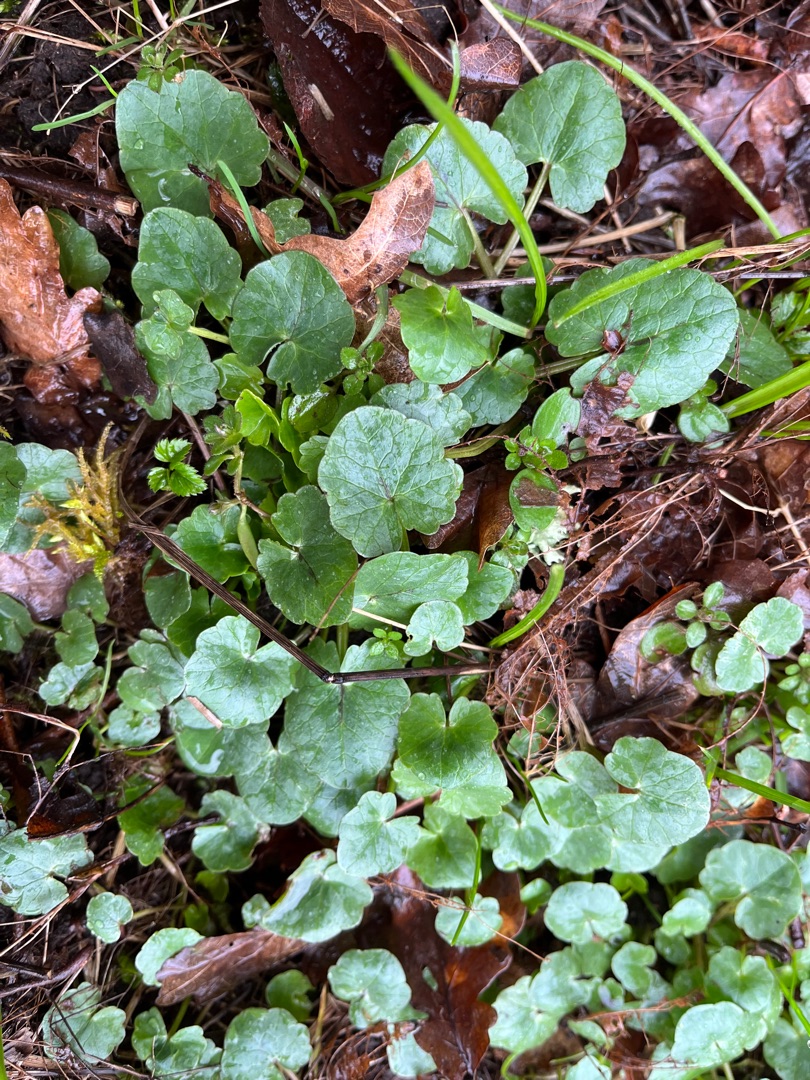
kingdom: Plantae
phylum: Tracheophyta
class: Magnoliopsida
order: Ranunculales
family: Ranunculaceae
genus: Ficaria
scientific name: Ficaria verna
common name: Vorterod
